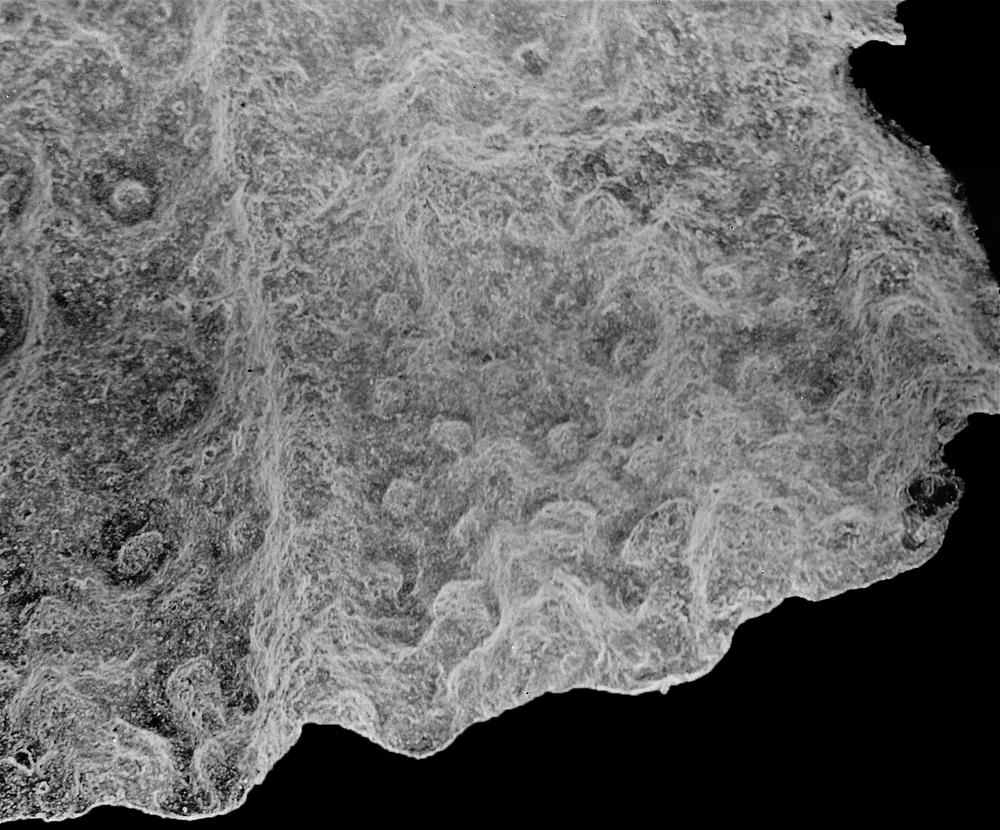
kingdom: Animalia
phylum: Brachiopoda
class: Rhynchonellata
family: Saukrodictyidae
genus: Saukrodictya
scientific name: Saukrodictya
